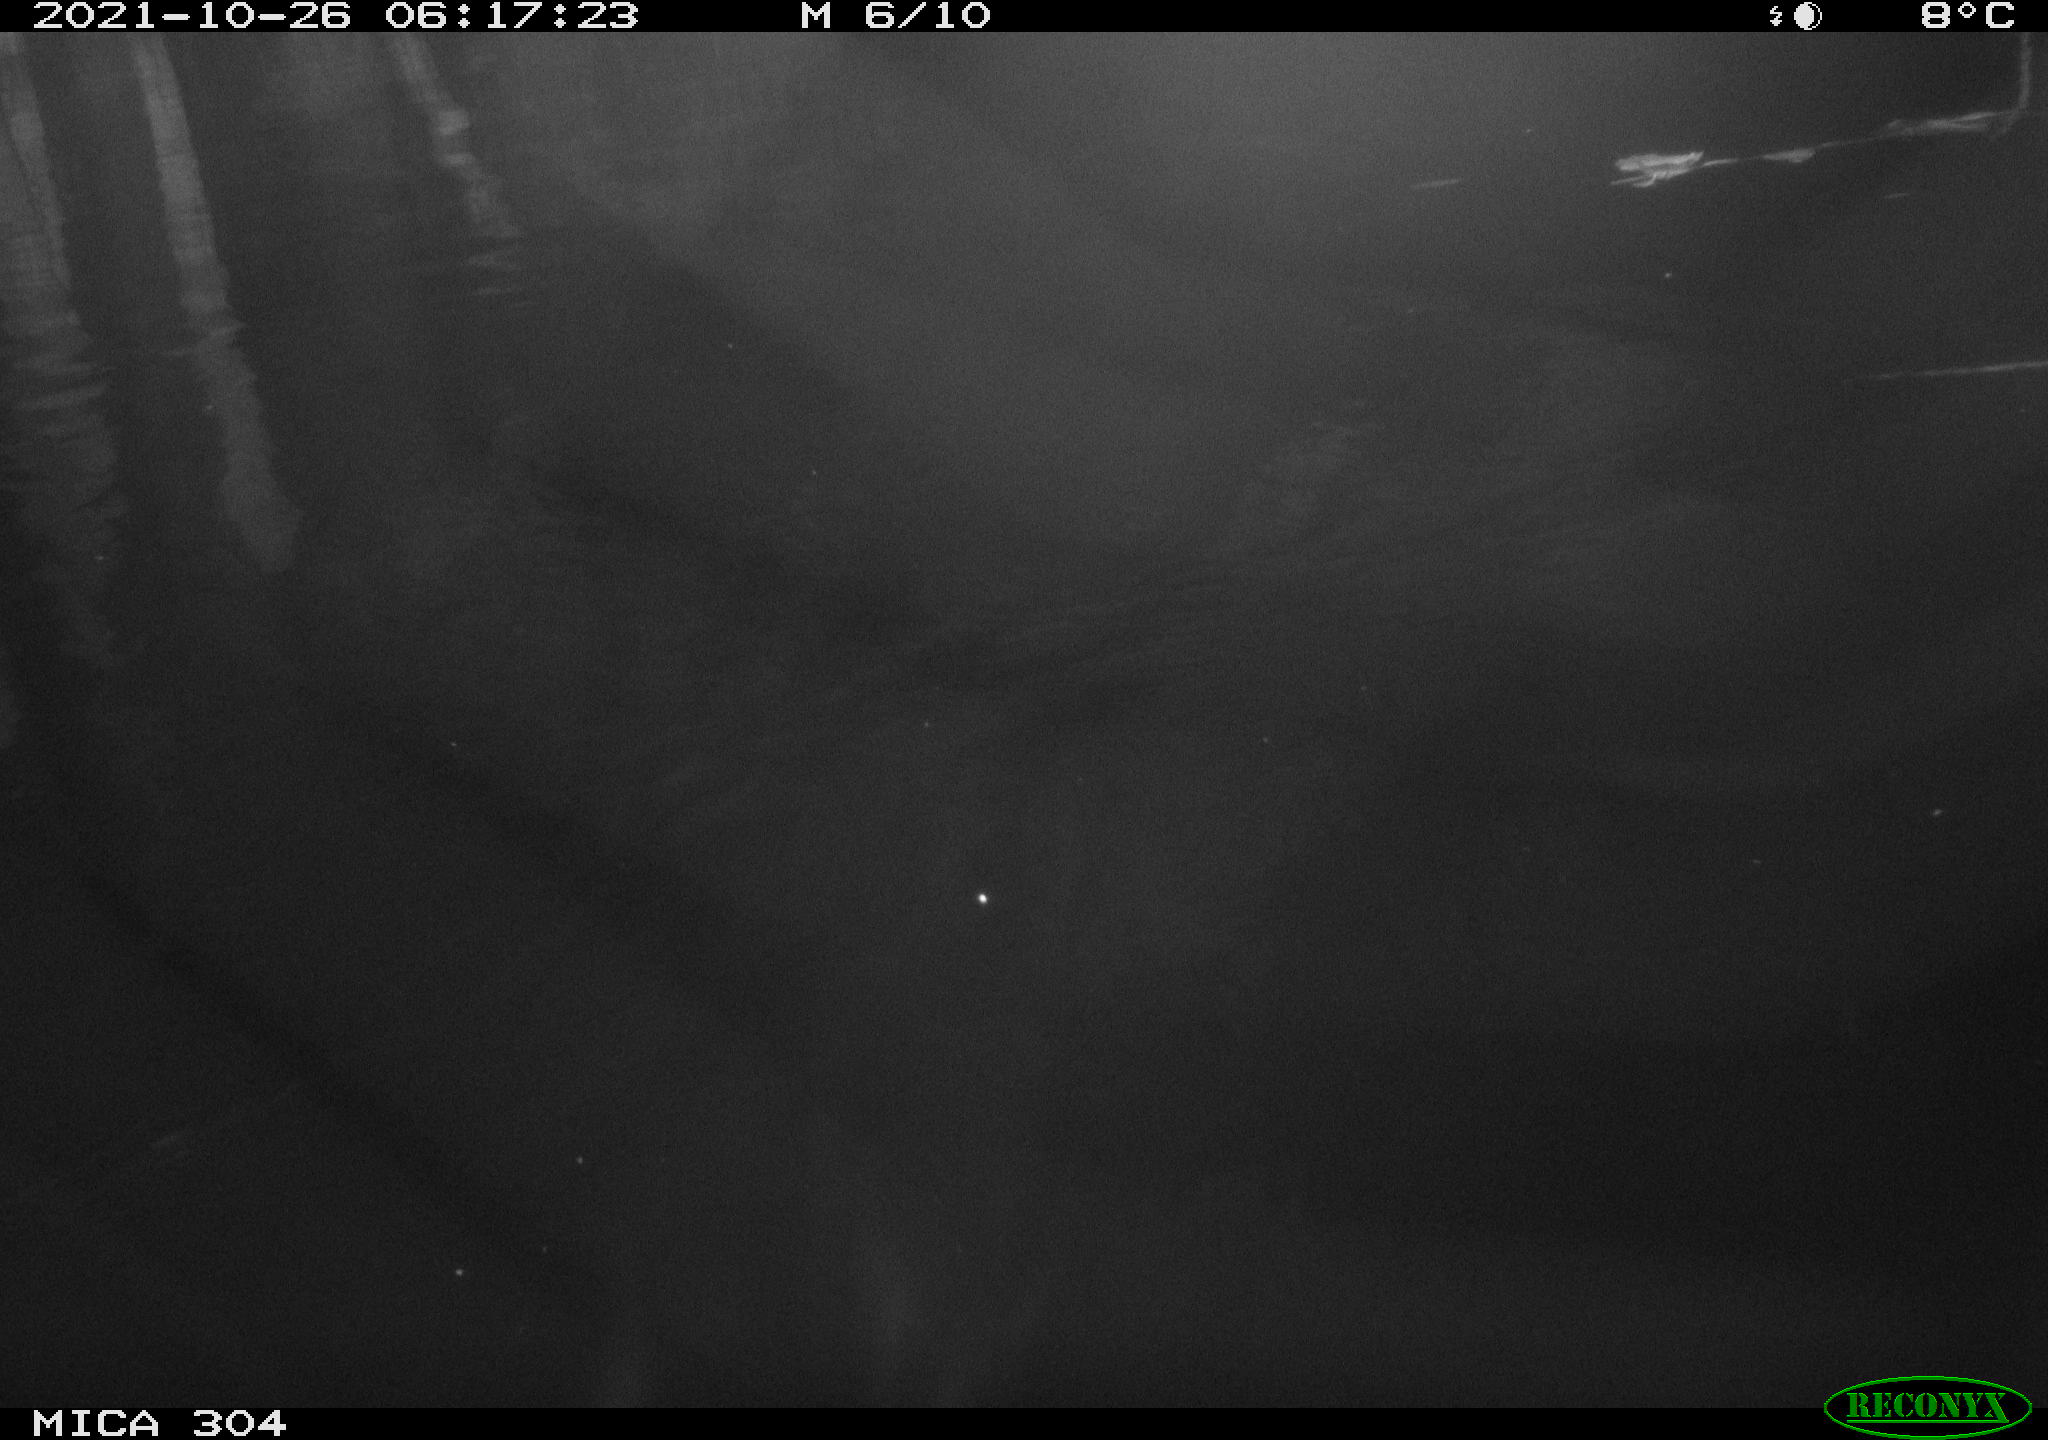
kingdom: Animalia
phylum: Chordata
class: Mammalia
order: Rodentia
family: Muridae
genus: Rattus
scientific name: Rattus norvegicus
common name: Brown rat
